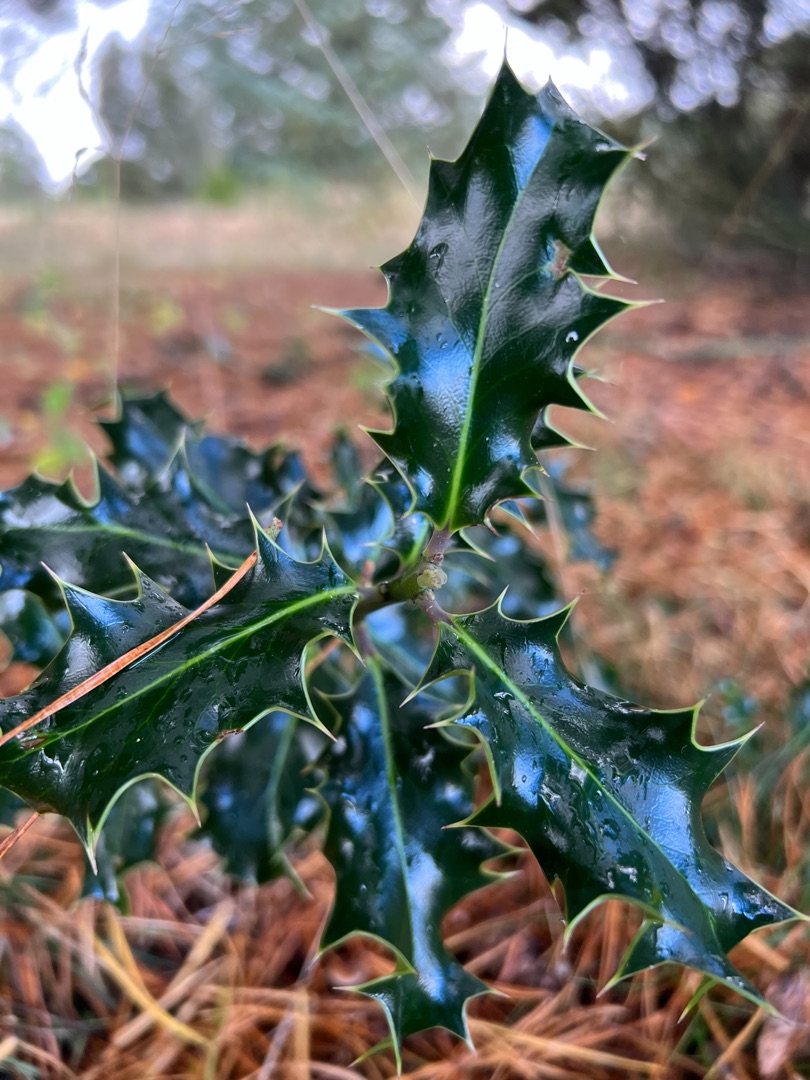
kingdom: Plantae
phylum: Tracheophyta
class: Magnoliopsida
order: Aquifoliales
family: Aquifoliaceae
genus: Ilex
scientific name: Ilex aquifolium
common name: Kristtorn
